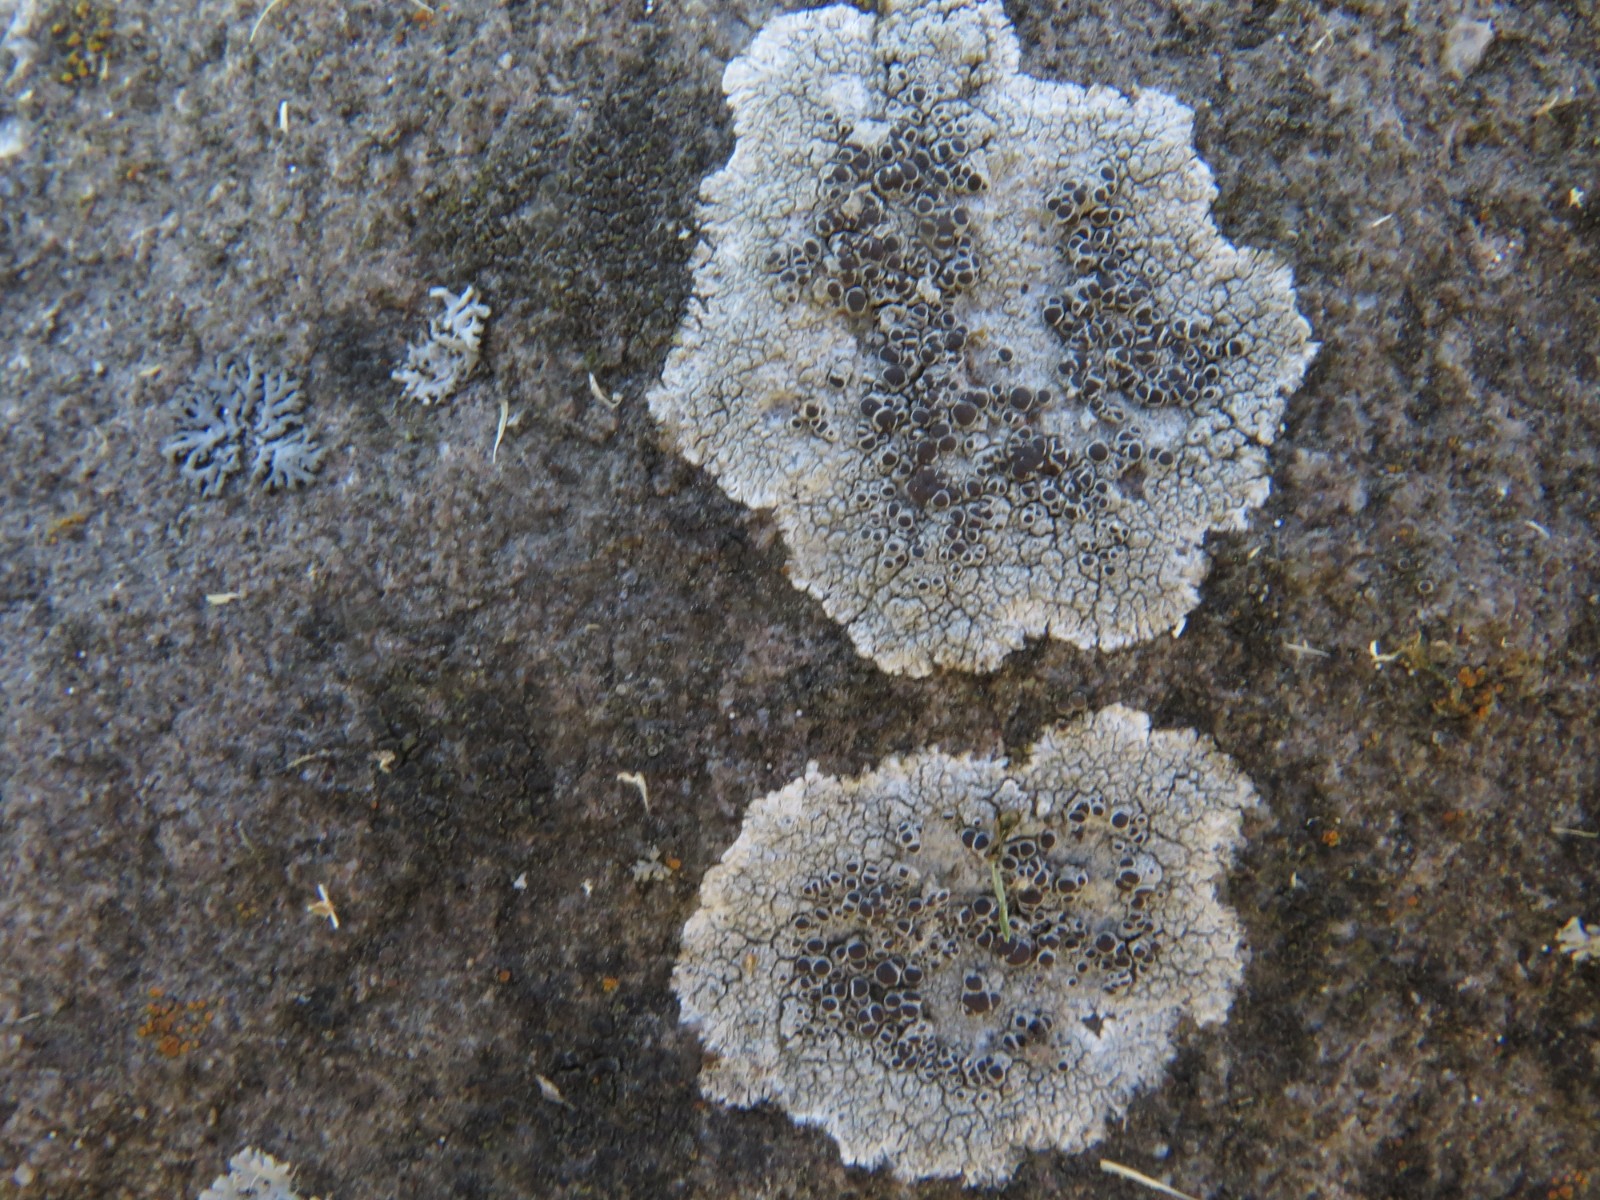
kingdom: Fungi
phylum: Ascomycota
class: Lecanoromycetes
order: Lecanorales
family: Tephromelataceae
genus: Tephromela
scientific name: Tephromela atra
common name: sortfrugtet kantskivelav
